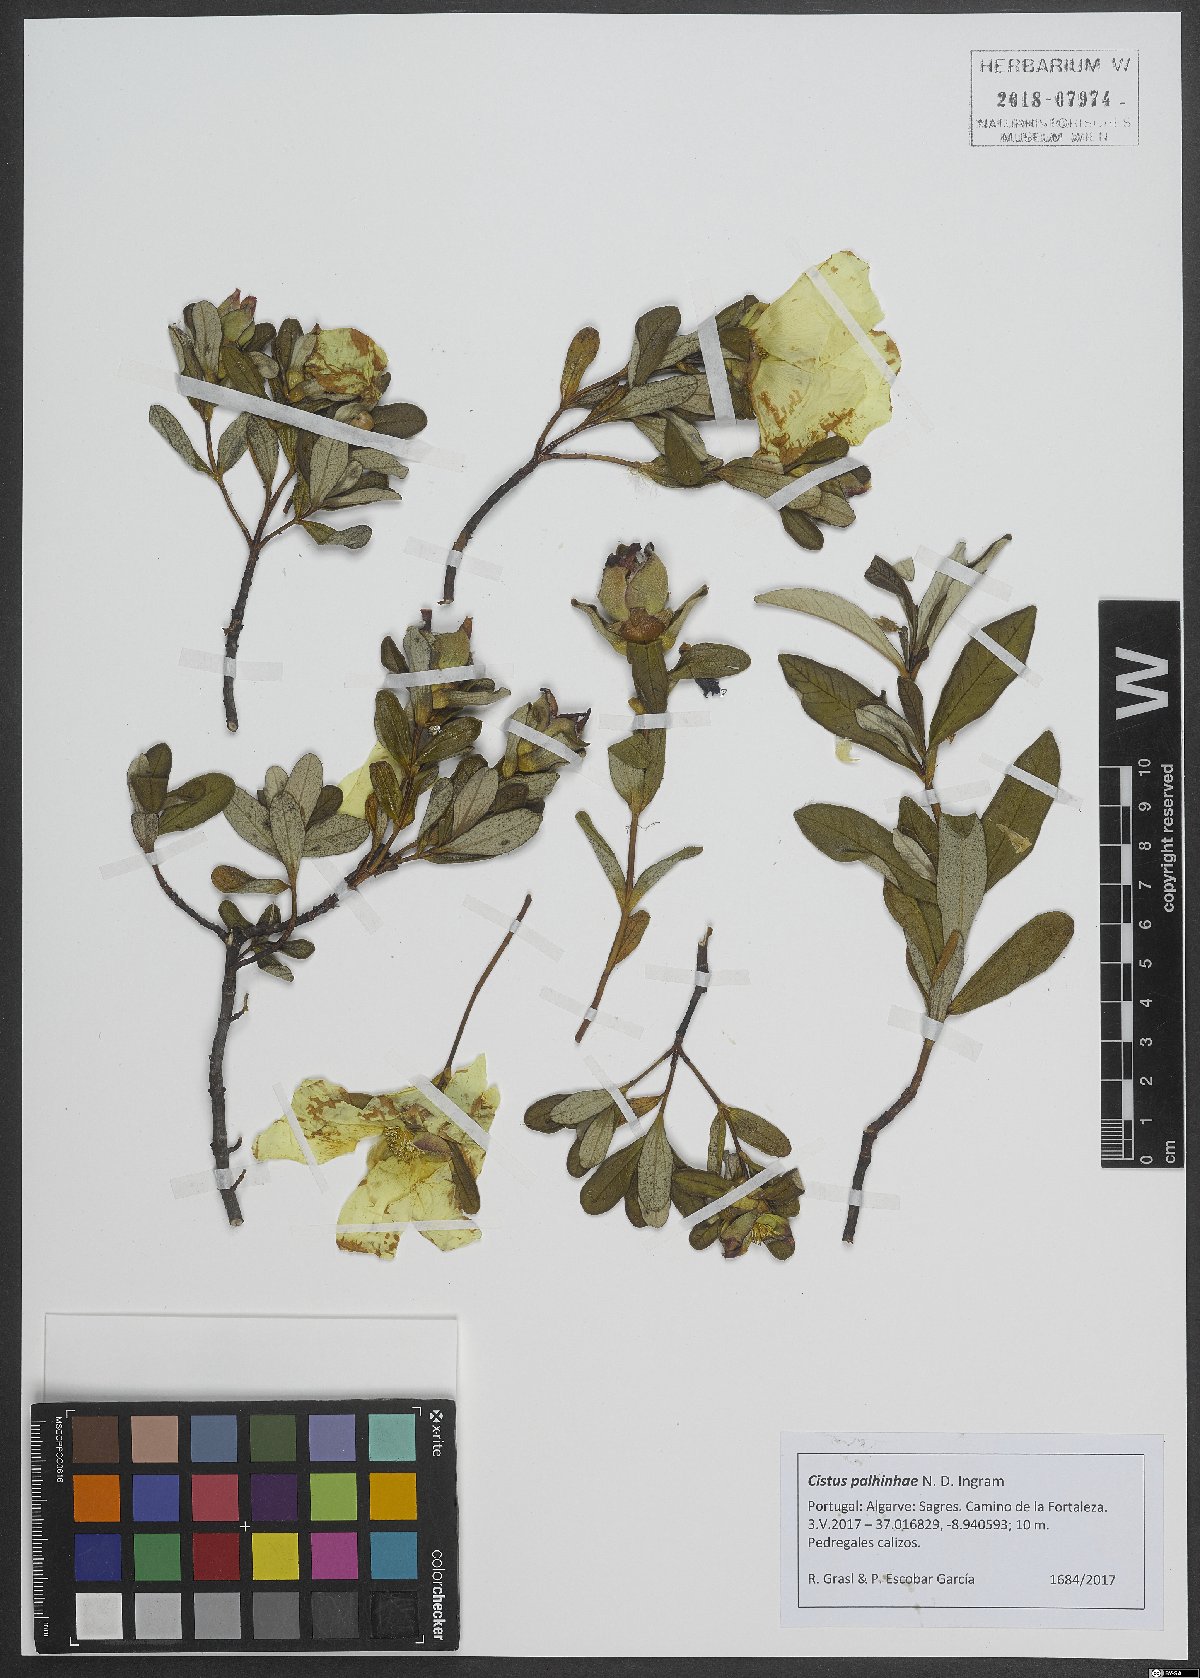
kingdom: Plantae
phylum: Tracheophyta
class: Magnoliopsida
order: Malvales
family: Cistaceae
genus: Cistus
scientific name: Cistus ladanifer
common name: Common gum cistus
